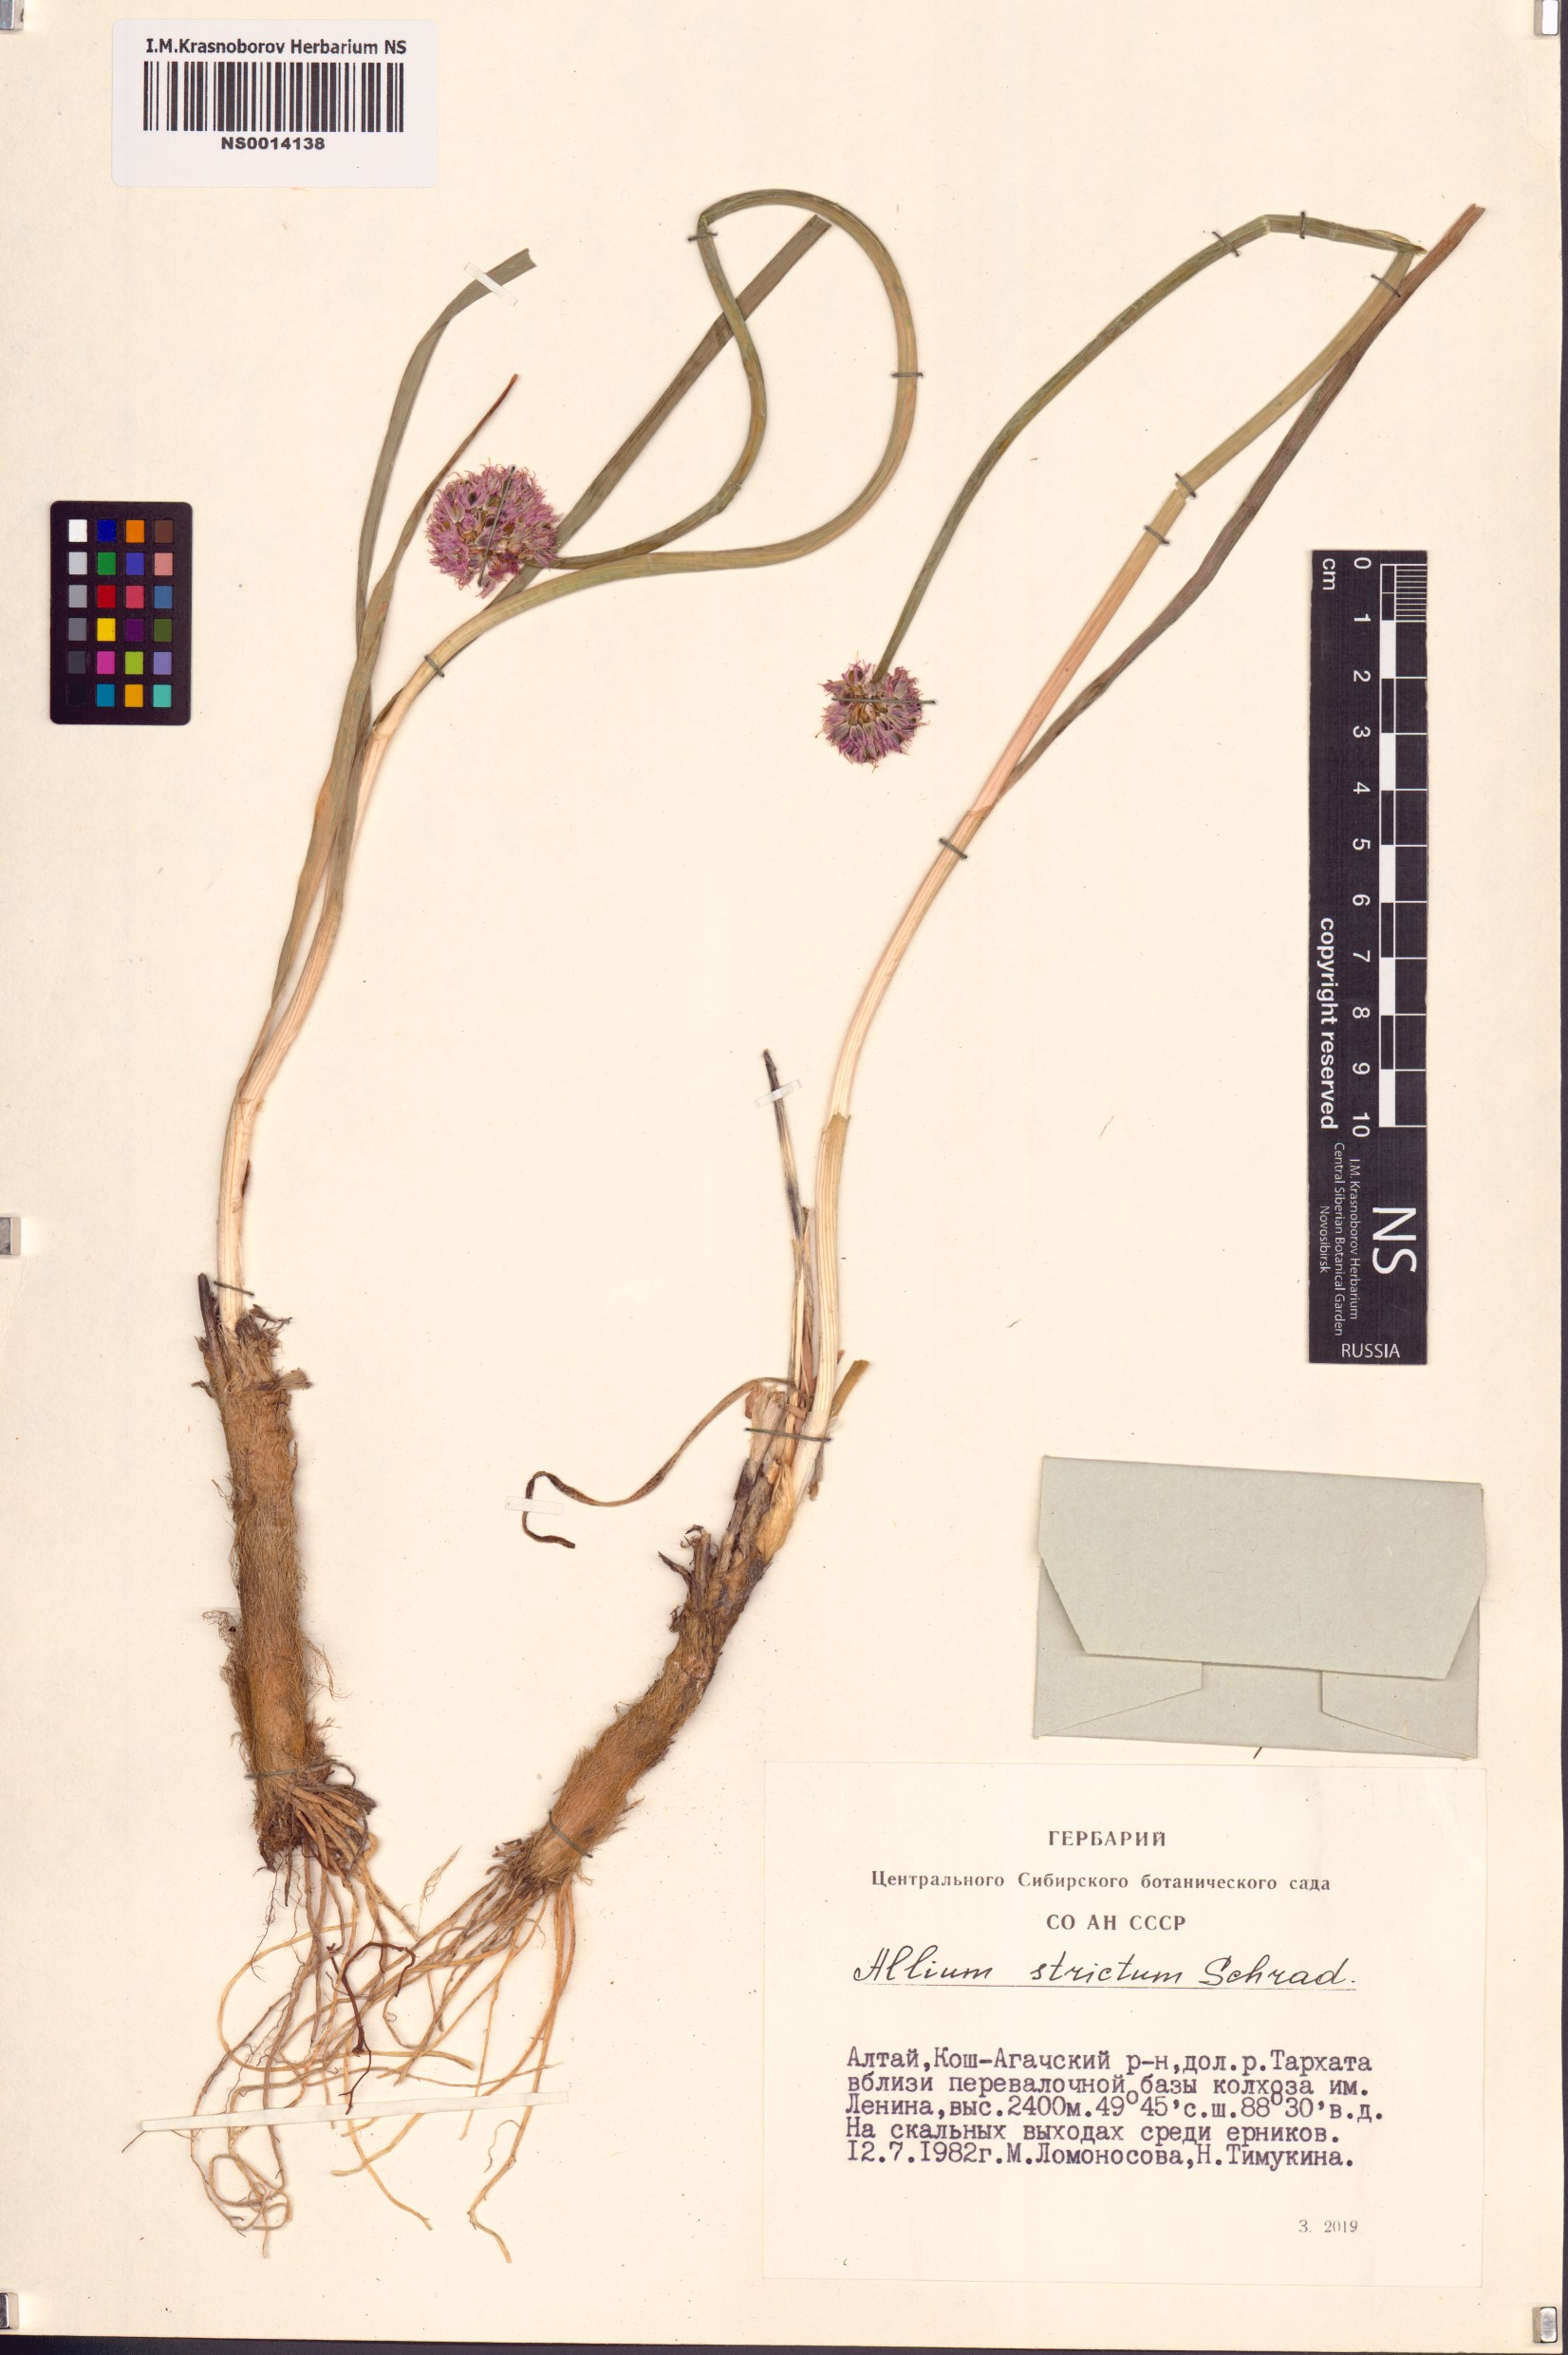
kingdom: Plantae
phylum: Tracheophyta
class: Liliopsida
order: Asparagales
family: Amaryllidaceae
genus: Allium
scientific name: Allium strictum
